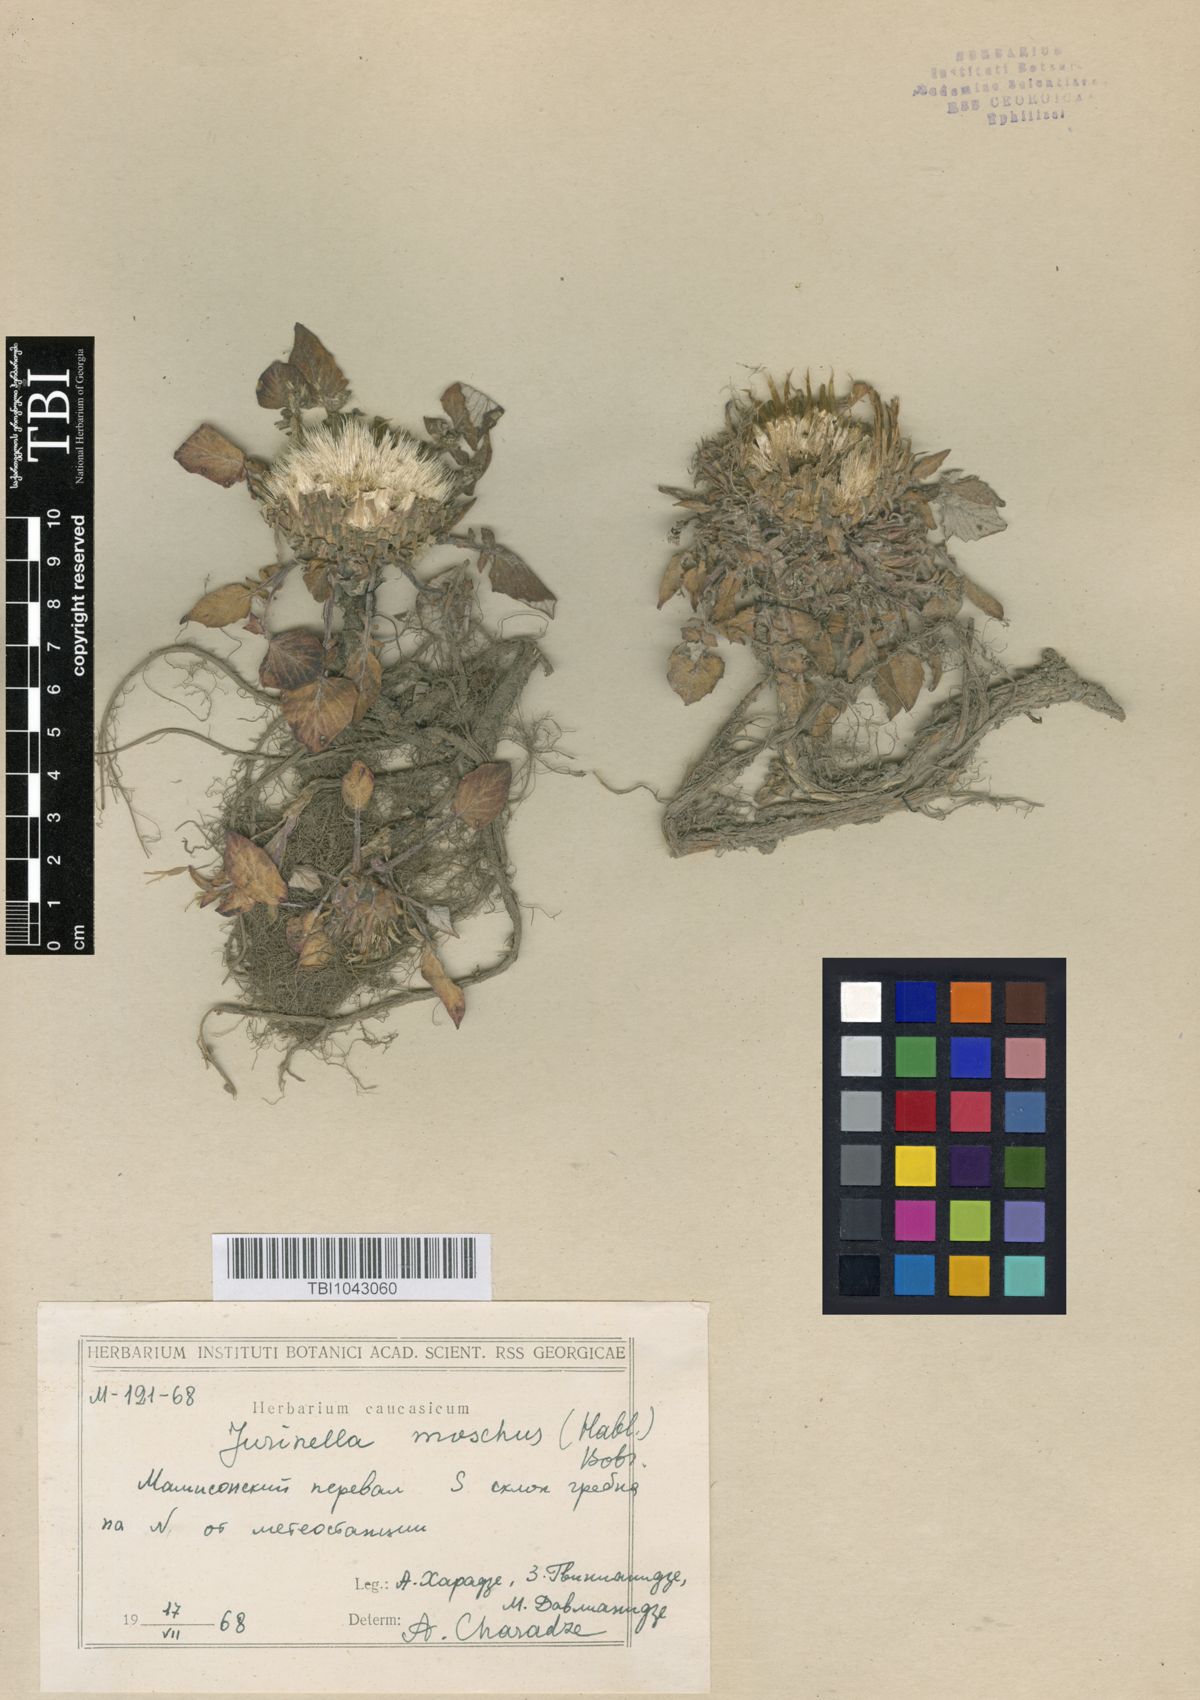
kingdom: Plantae
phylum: Tracheophyta
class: Magnoliopsida
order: Asterales
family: Asteraceae
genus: Jurinea
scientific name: Jurinea moschus
